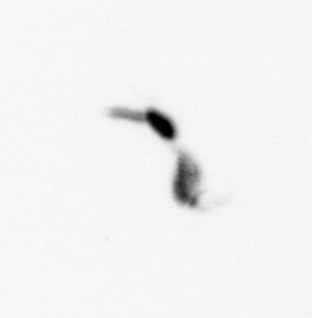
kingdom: Animalia
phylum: Arthropoda
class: Copepoda
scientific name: Copepoda
